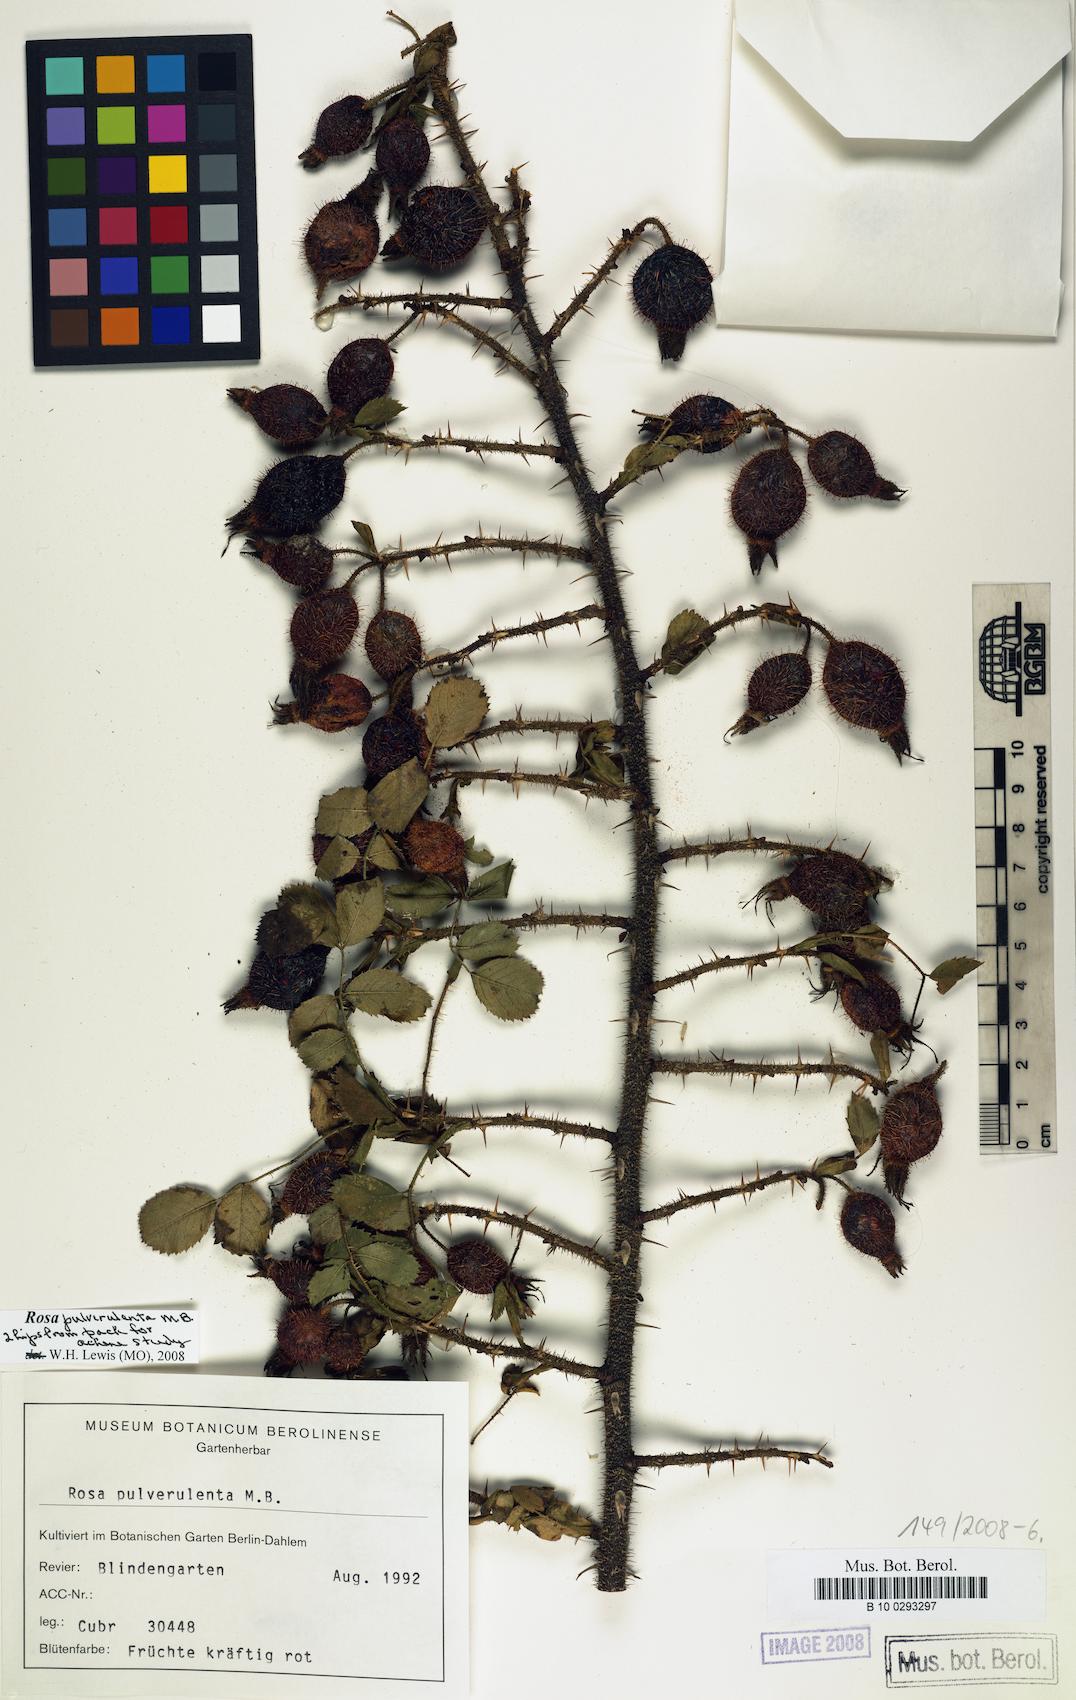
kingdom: Plantae
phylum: Tracheophyta
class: Magnoliopsida
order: Rosales
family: Rosaceae
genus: Rosa
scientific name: Rosa pulverulenta
